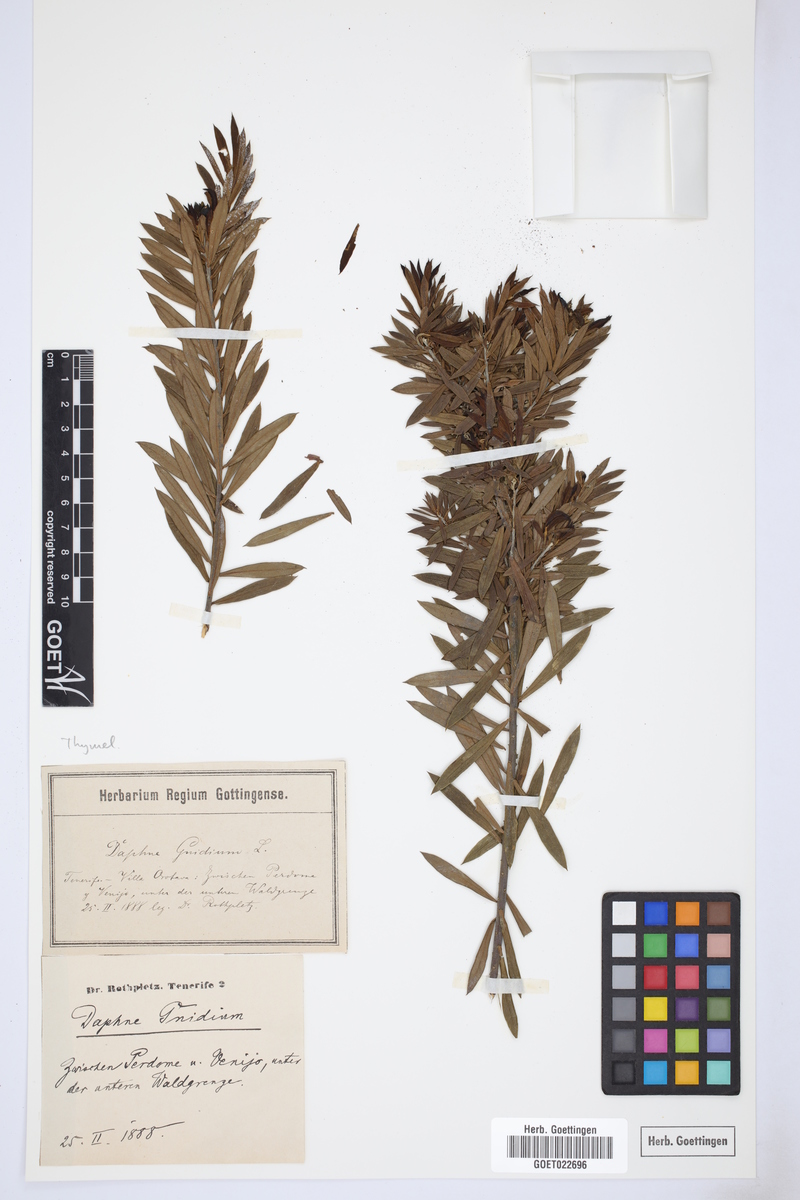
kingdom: Plantae
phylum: Tracheophyta
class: Magnoliopsida
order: Malvales
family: Thymelaeaceae
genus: Daphne
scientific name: Daphne gnidium
